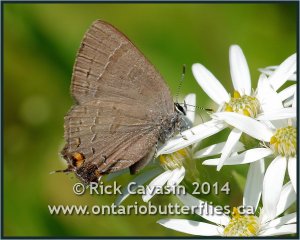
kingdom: Animalia
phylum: Arthropoda
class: Insecta
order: Lepidoptera
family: Lycaenidae
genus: Satyrium
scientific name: Satyrium calanus
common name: Banded Hairstreak
